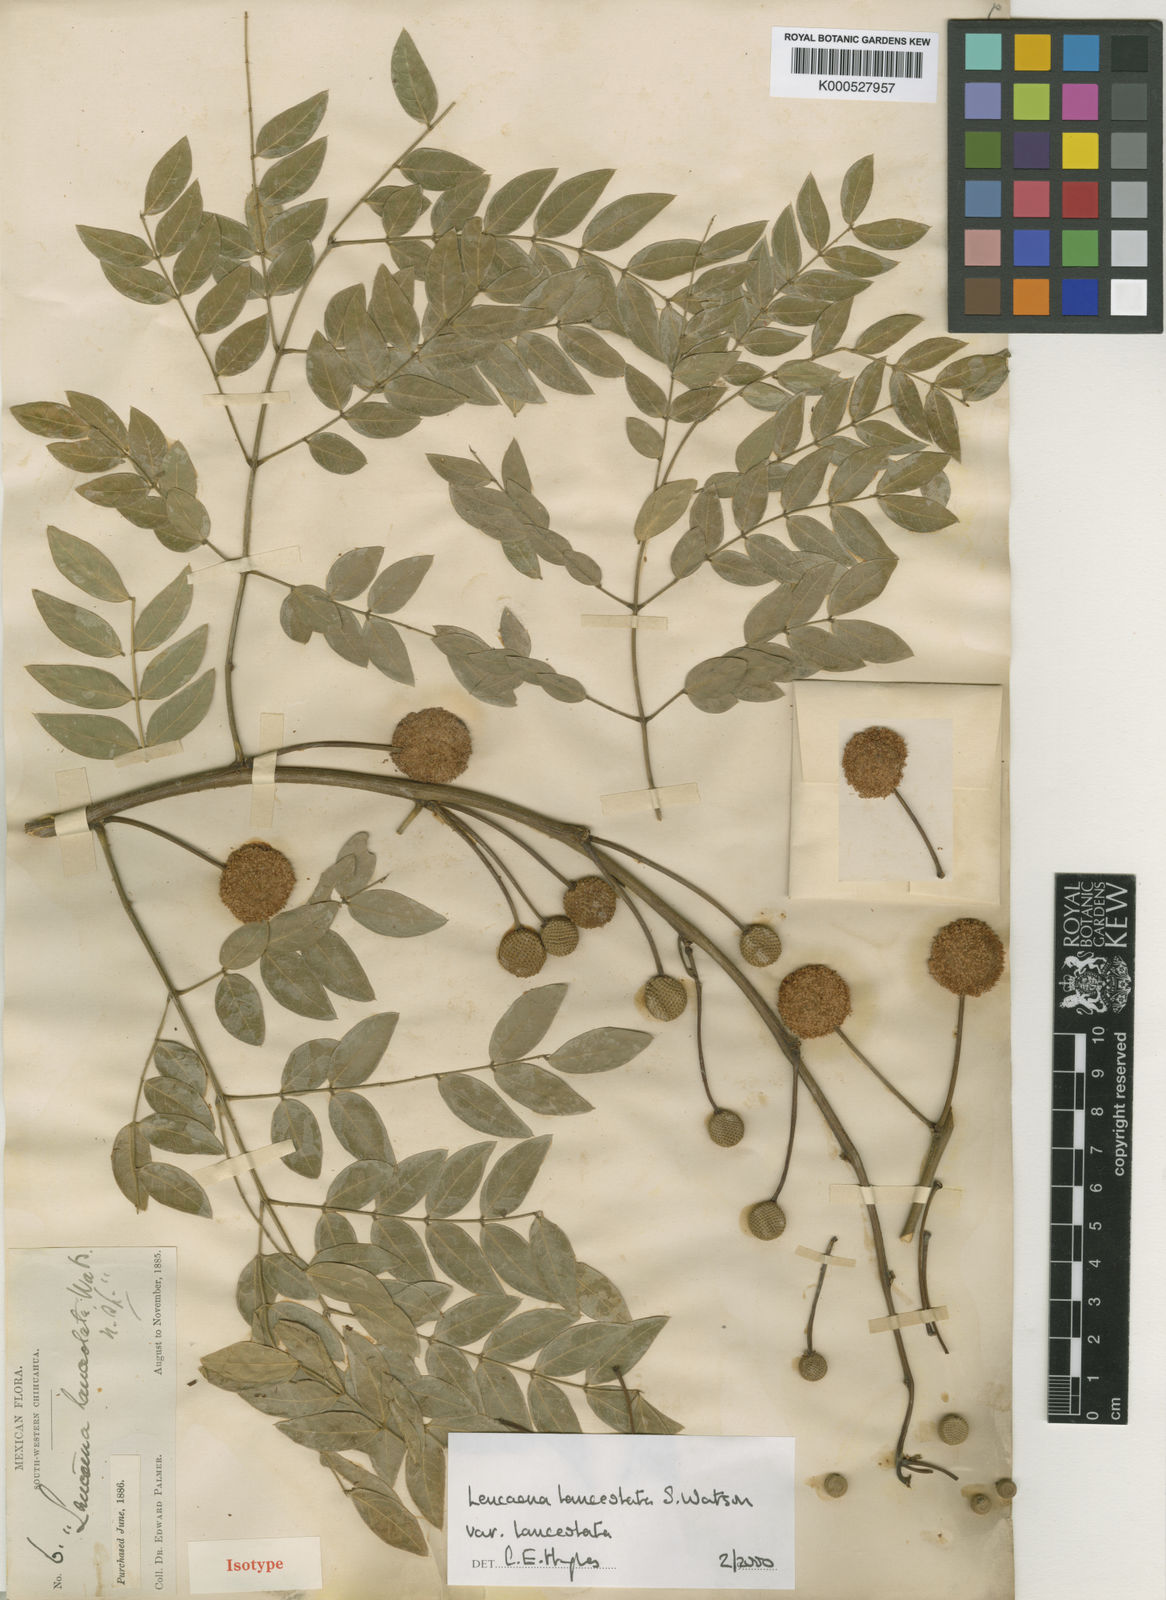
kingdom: Plantae
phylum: Tracheophyta
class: Magnoliopsida
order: Fabales
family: Fabaceae
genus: Leucaena
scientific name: Leucaena lanceolata
